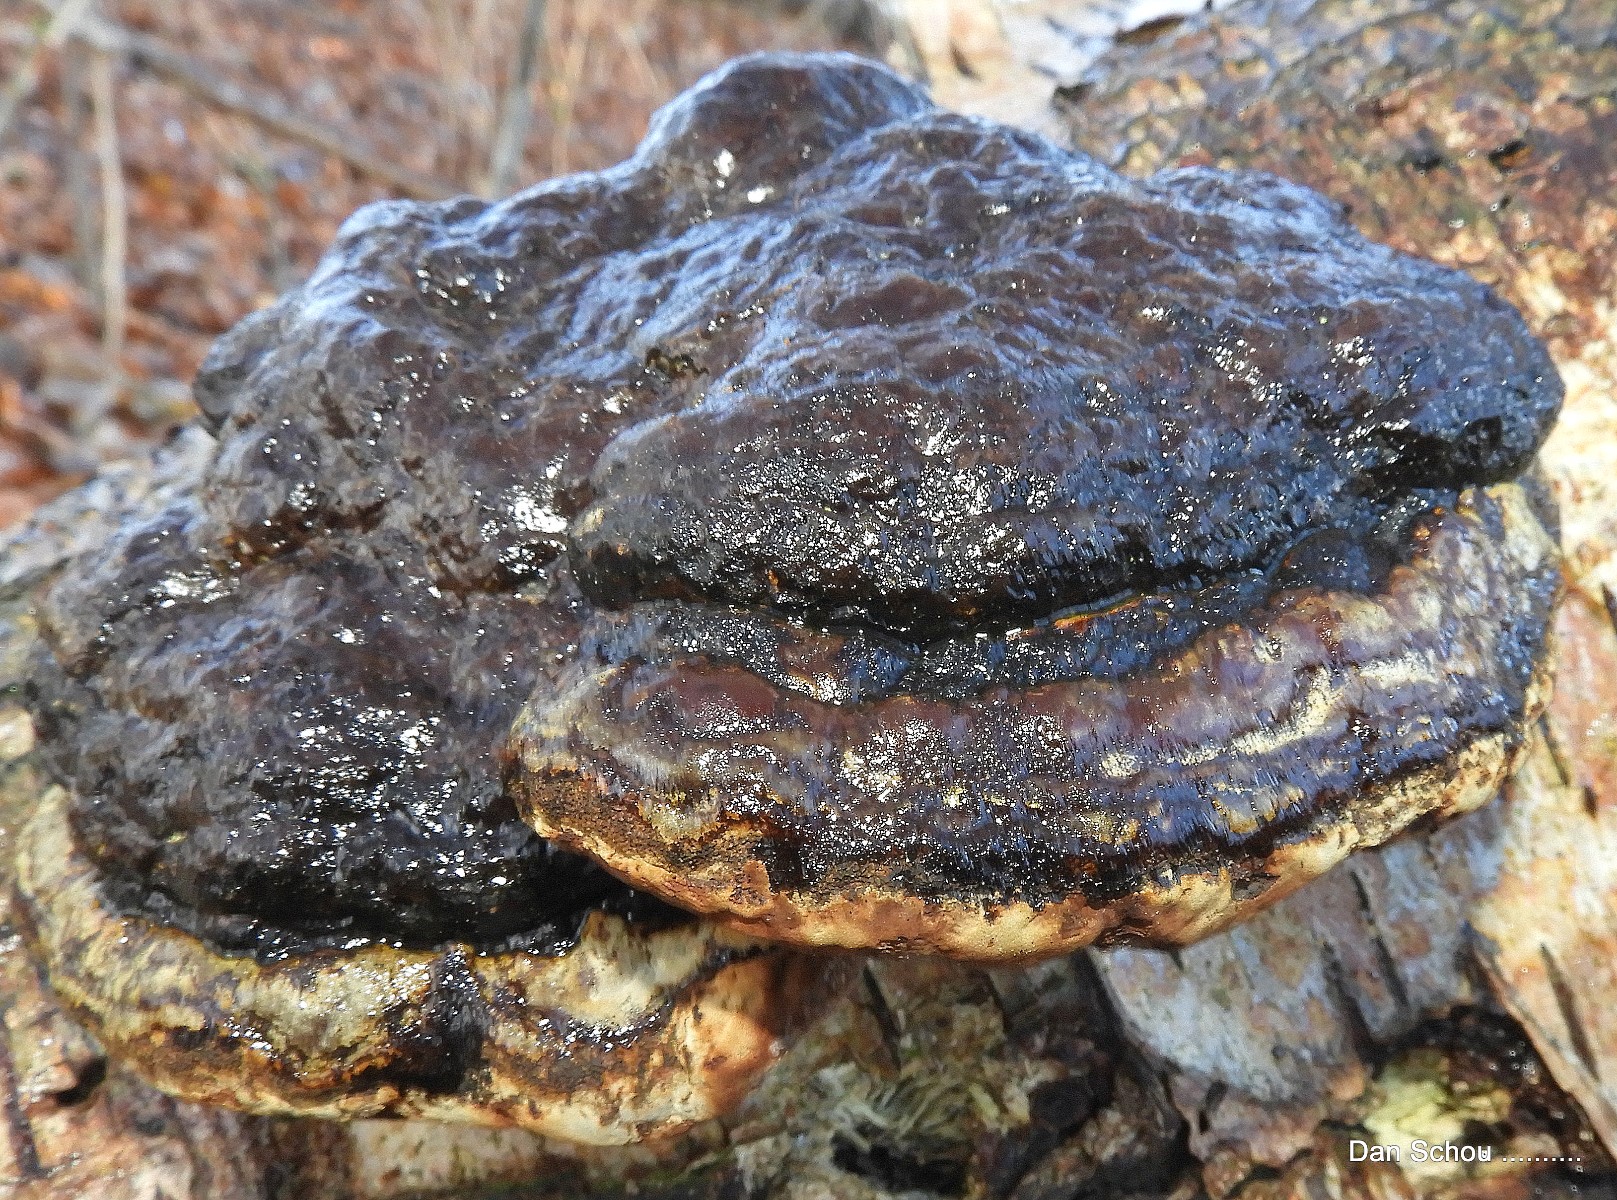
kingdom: Fungi
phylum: Basidiomycota
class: Agaricomycetes
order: Polyporales
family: Polyporaceae
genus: Fomes
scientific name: Fomes fomentarius
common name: tøndersvamp
